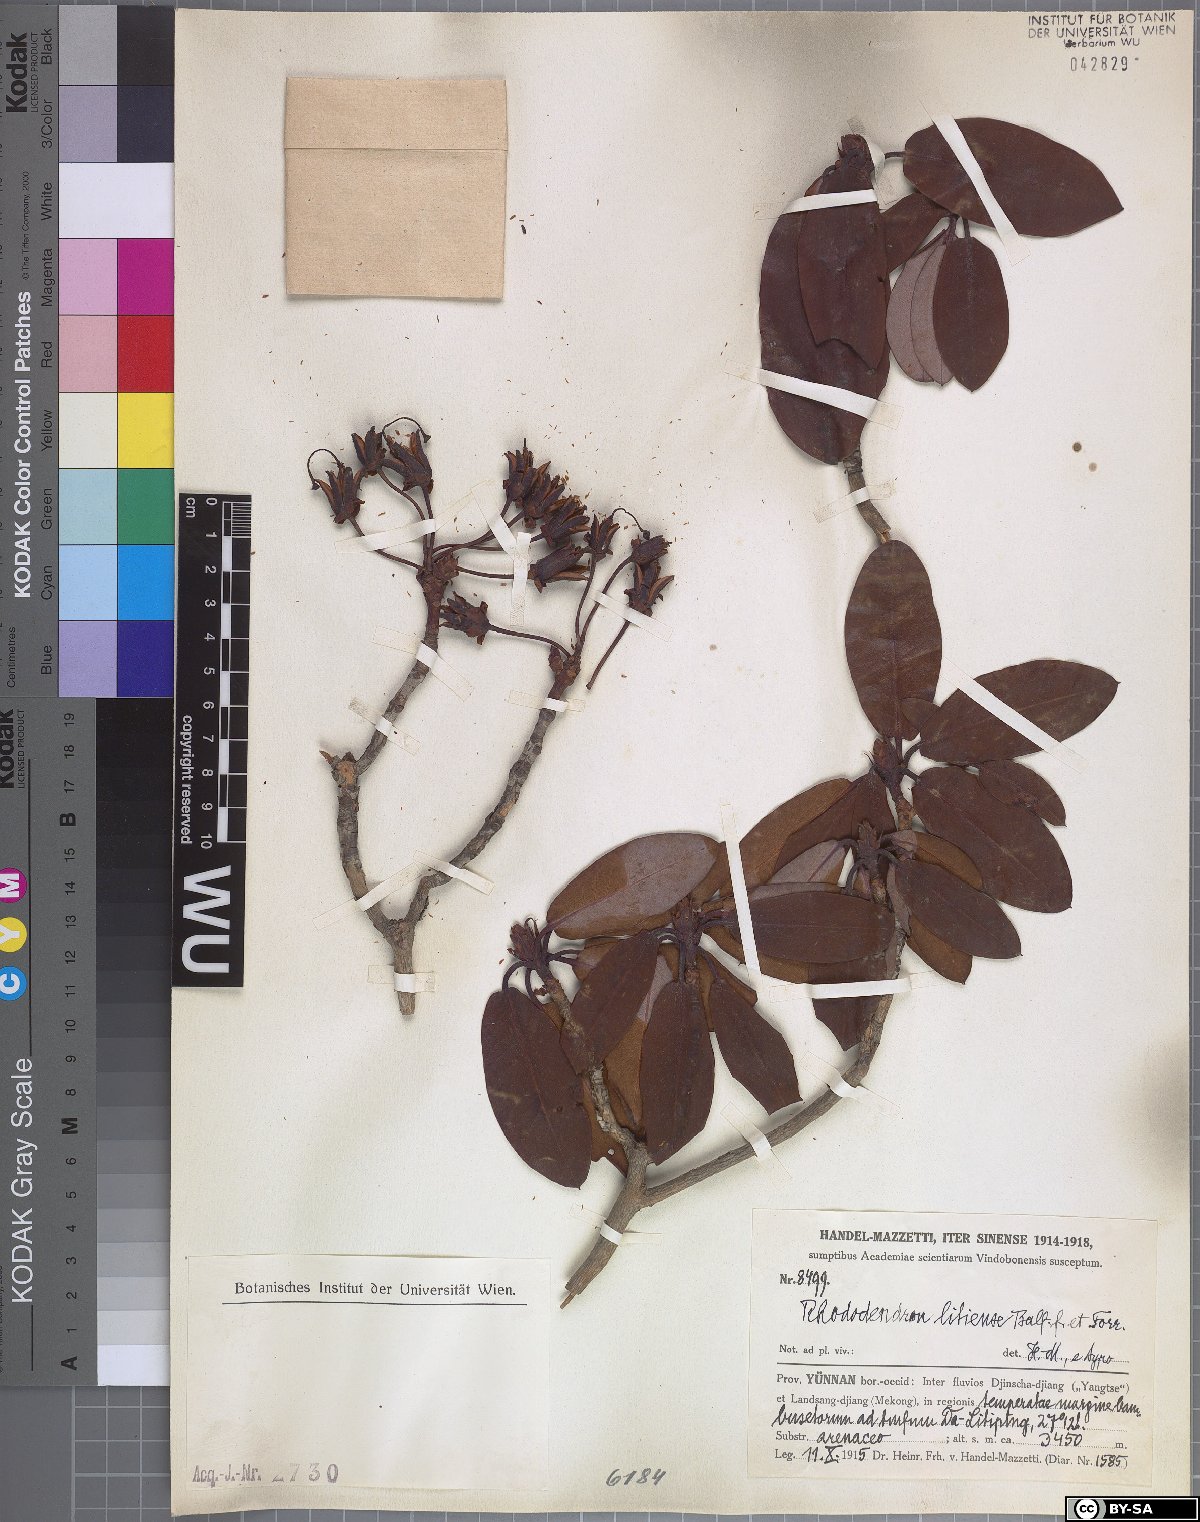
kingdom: Plantae
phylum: Tracheophyta
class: Magnoliopsida
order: Ericales
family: Ericaceae
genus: Rhododendron
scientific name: Rhododendron wardii
